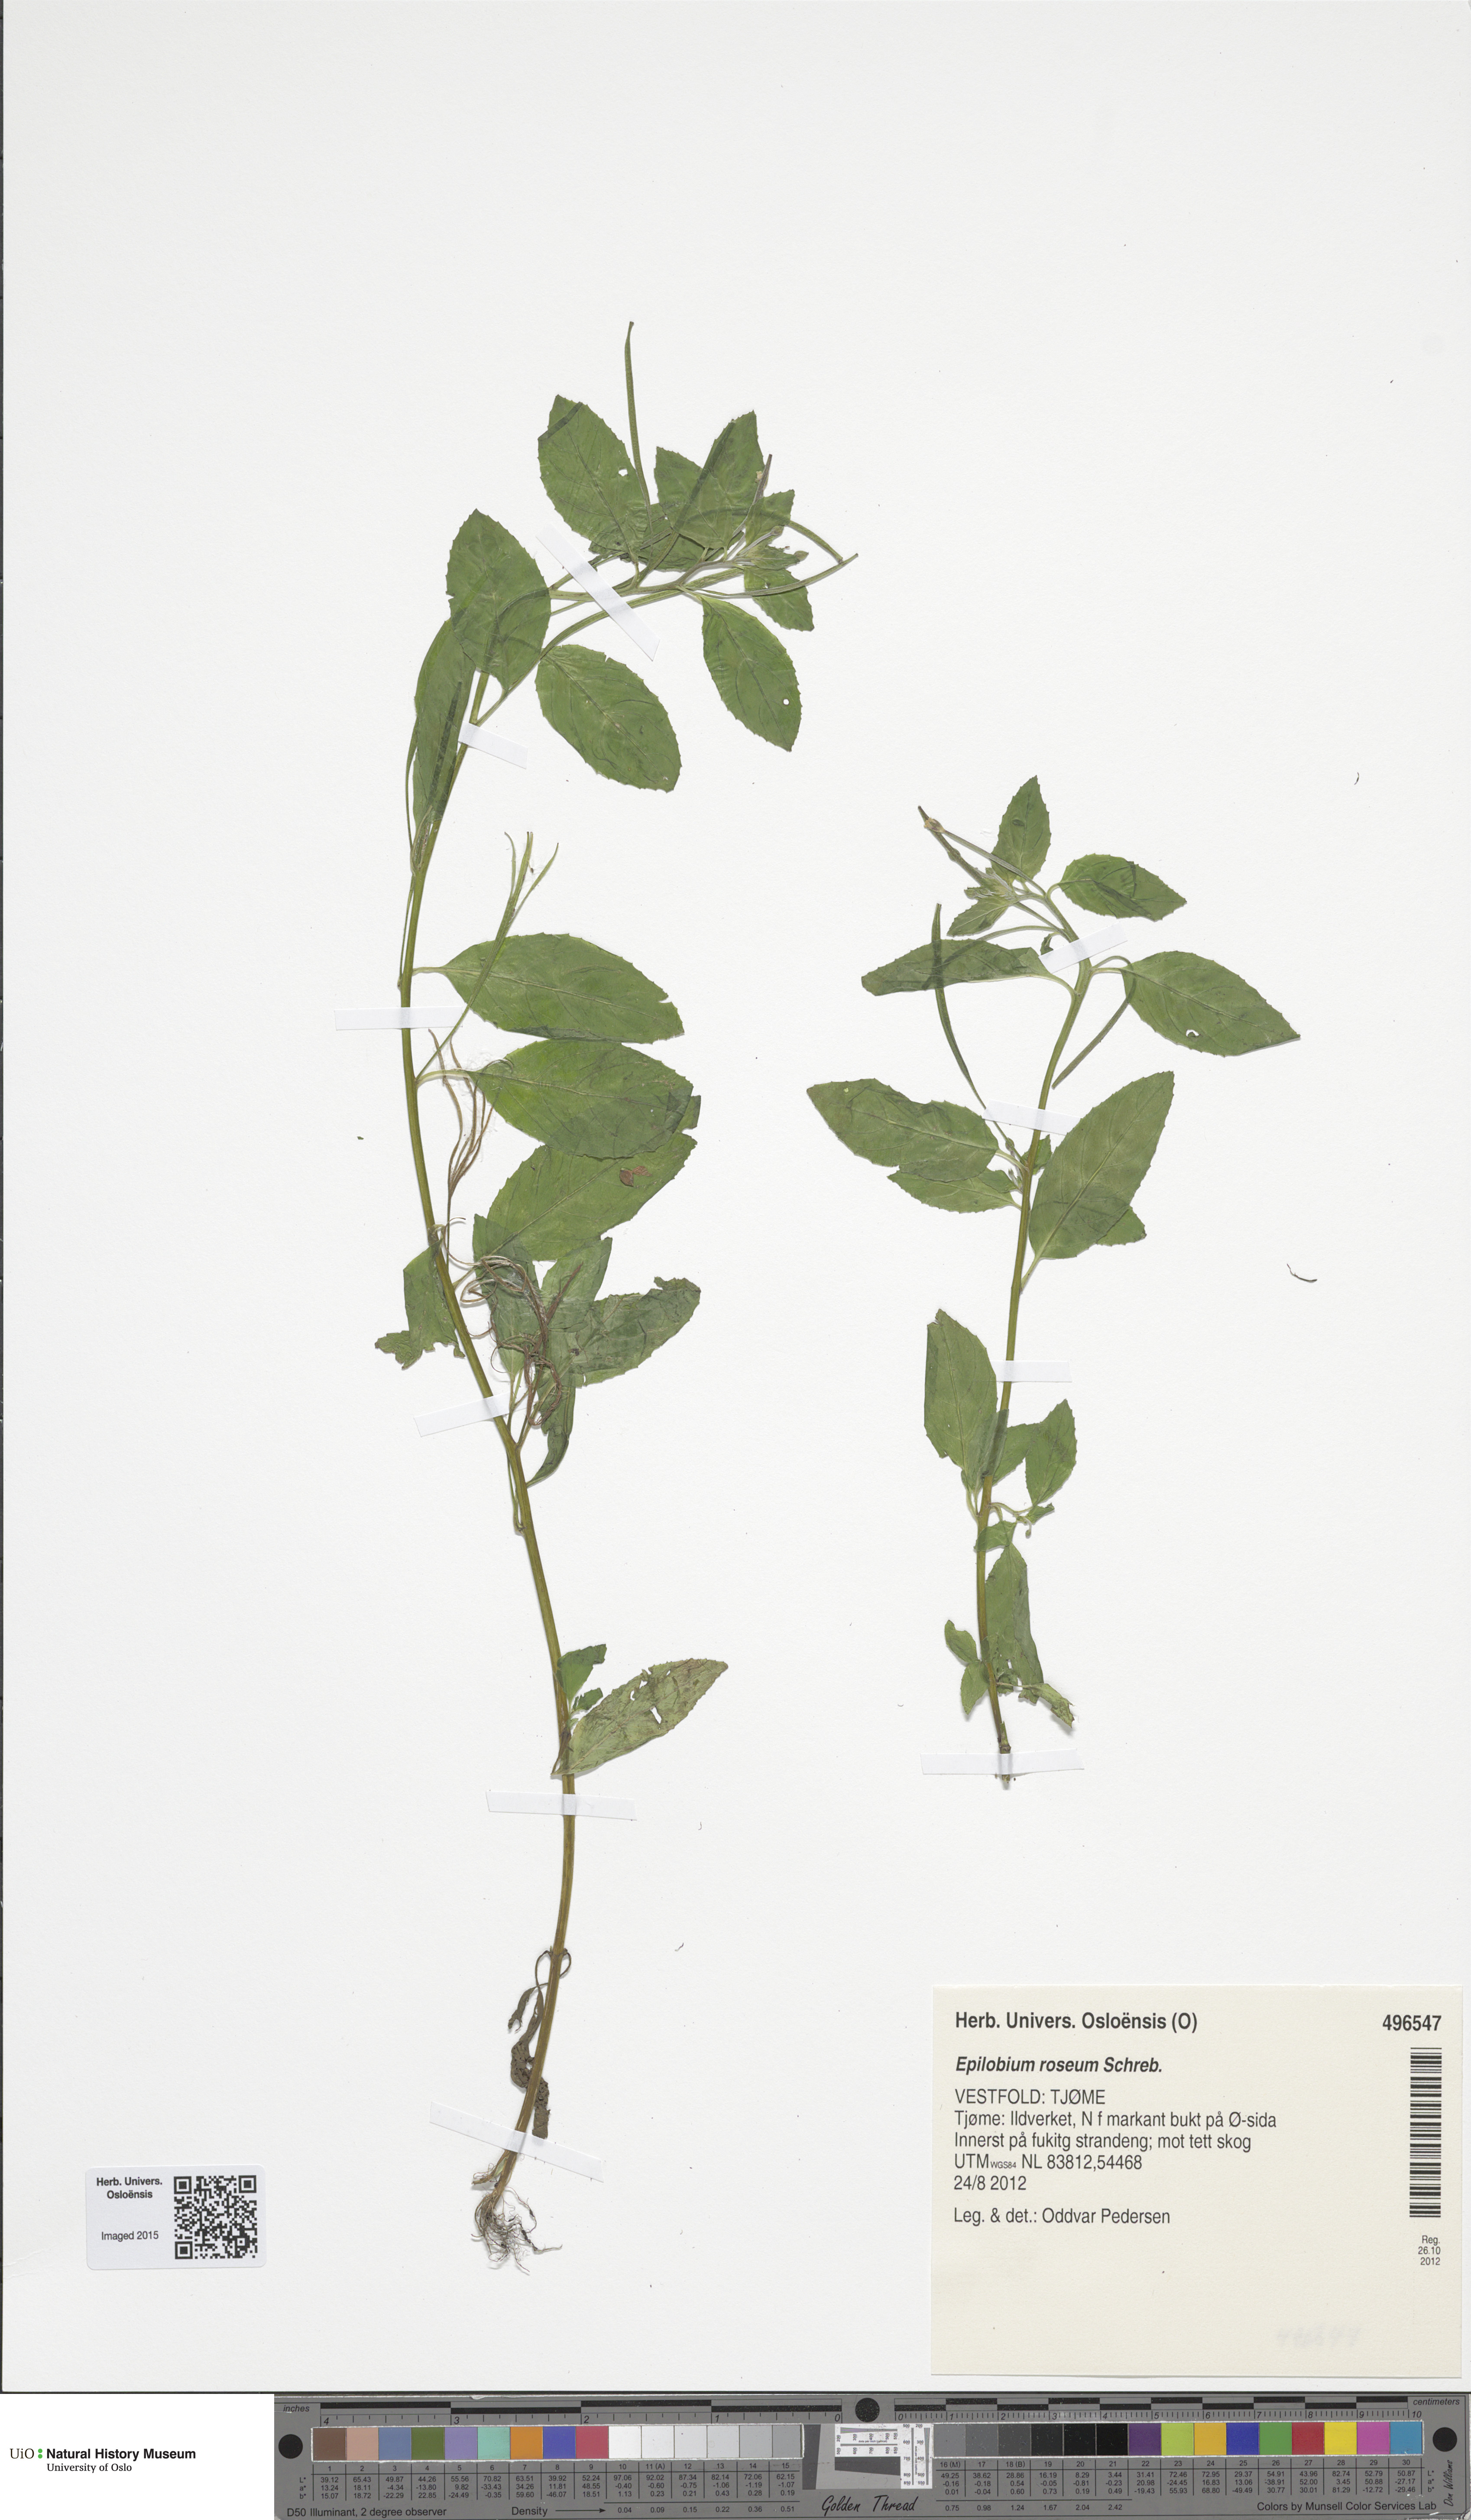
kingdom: Plantae
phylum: Tracheophyta
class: Magnoliopsida
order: Myrtales
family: Onagraceae
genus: Epilobium
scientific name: Epilobium roseum
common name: Pale willowherb
